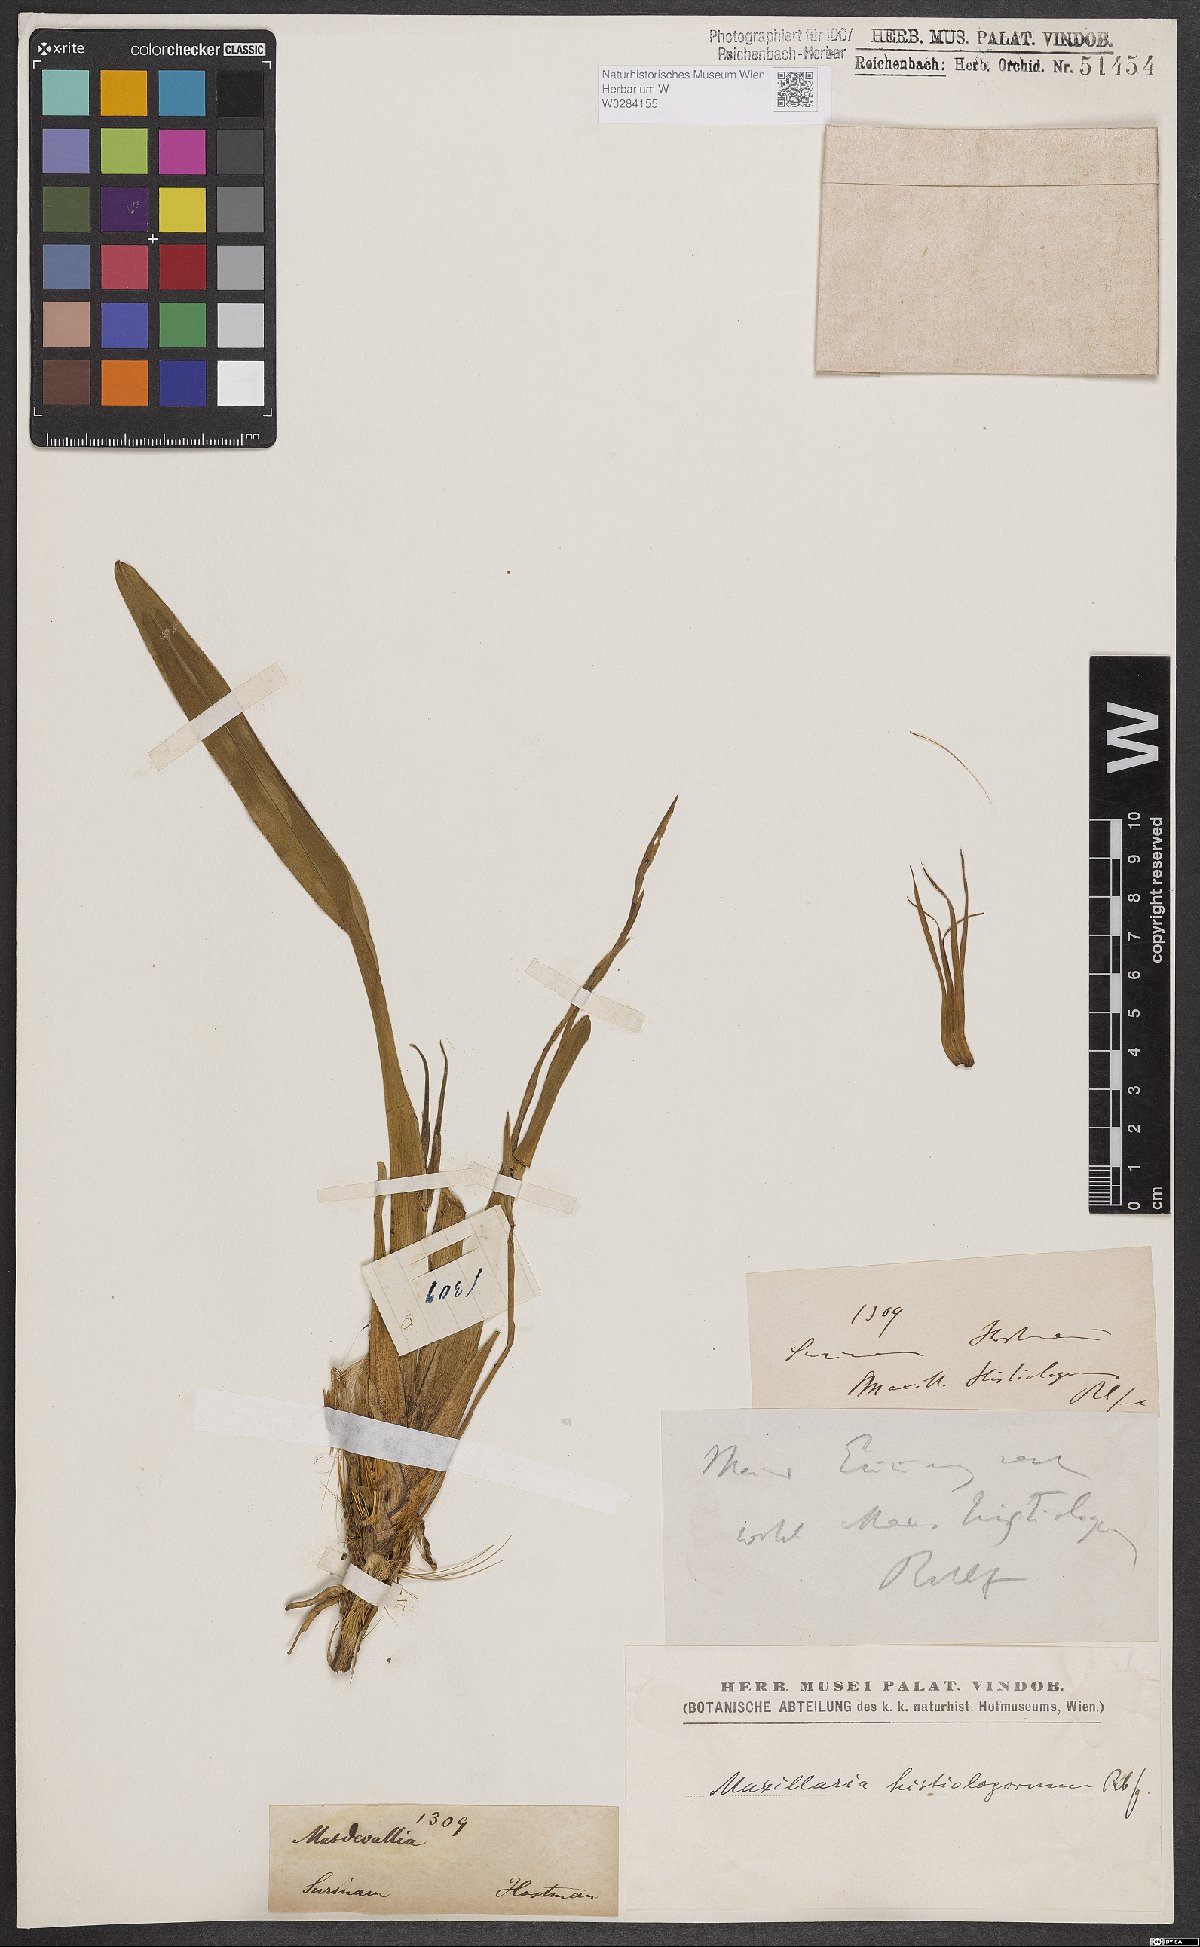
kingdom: Plantae
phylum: Tracheophyta
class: Liliopsida
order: Asparagales
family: Orchidaceae
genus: Maxillaria
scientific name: Maxillaria splendens
